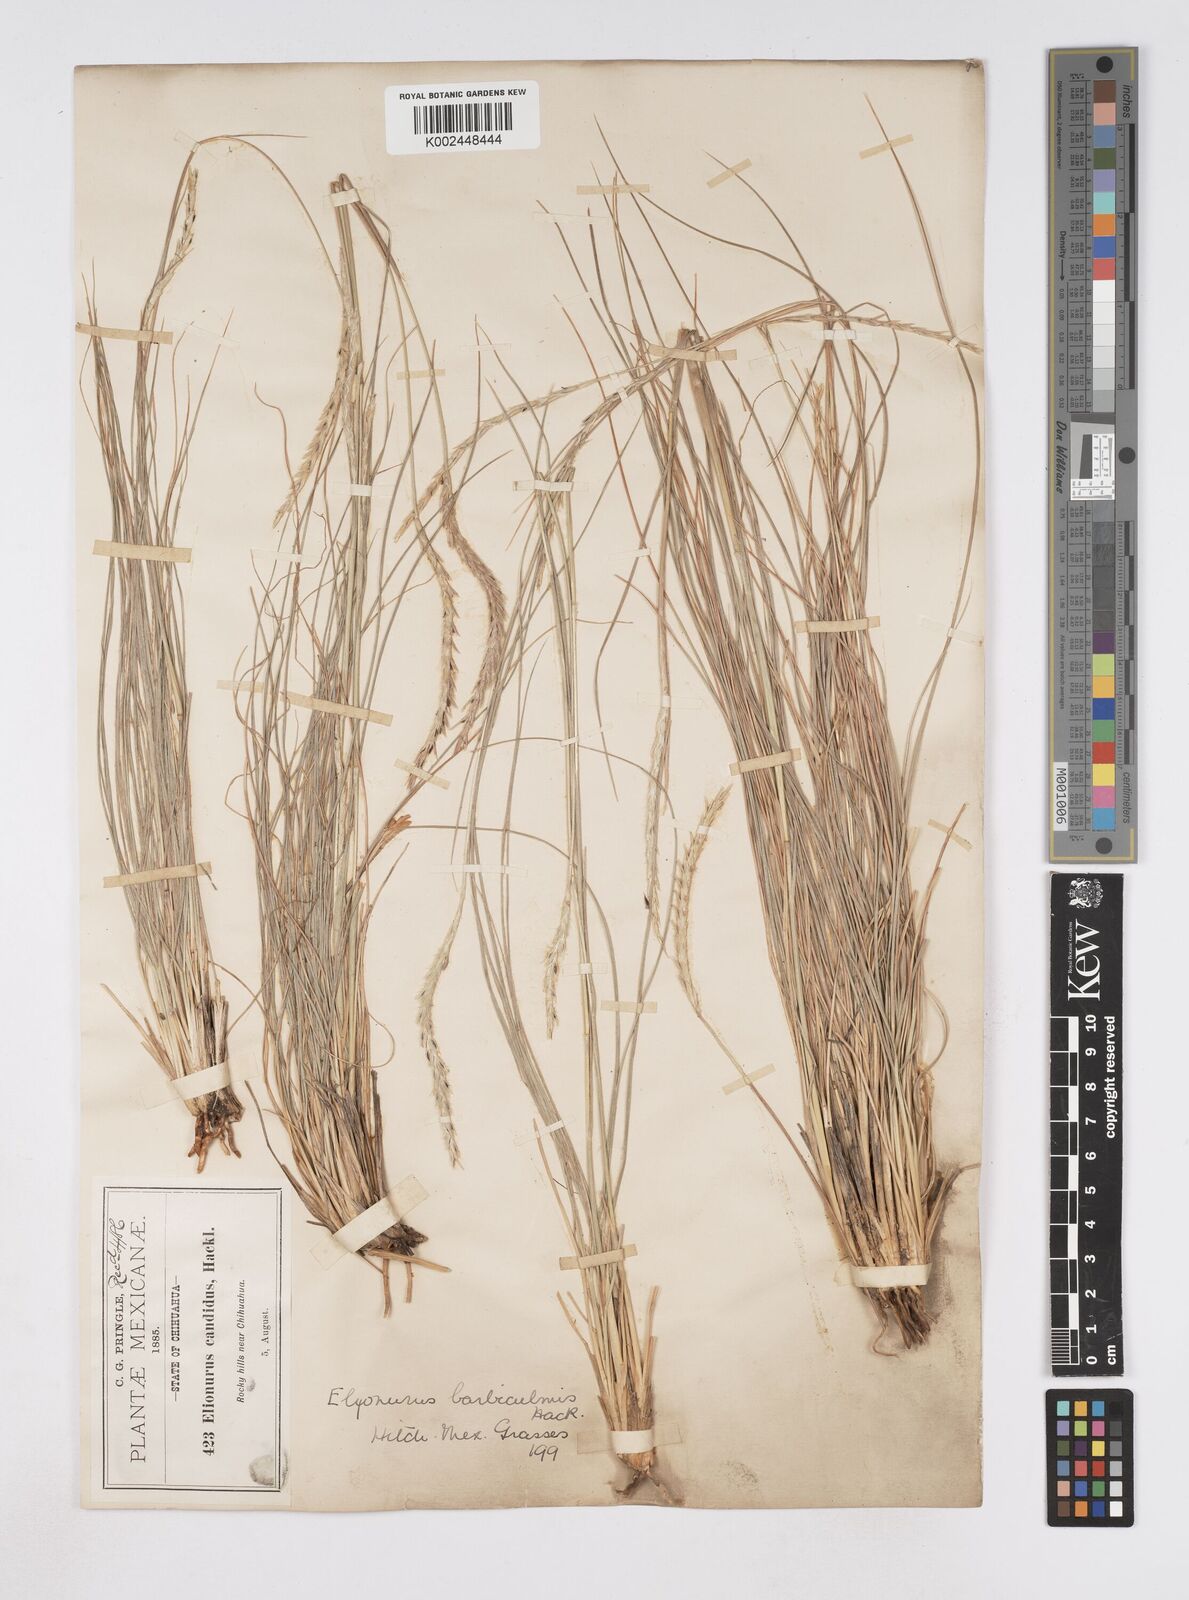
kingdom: Plantae
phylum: Tracheophyta
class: Liliopsida
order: Poales
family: Poaceae
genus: Elionurus
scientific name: Elionurus barbiculmis
